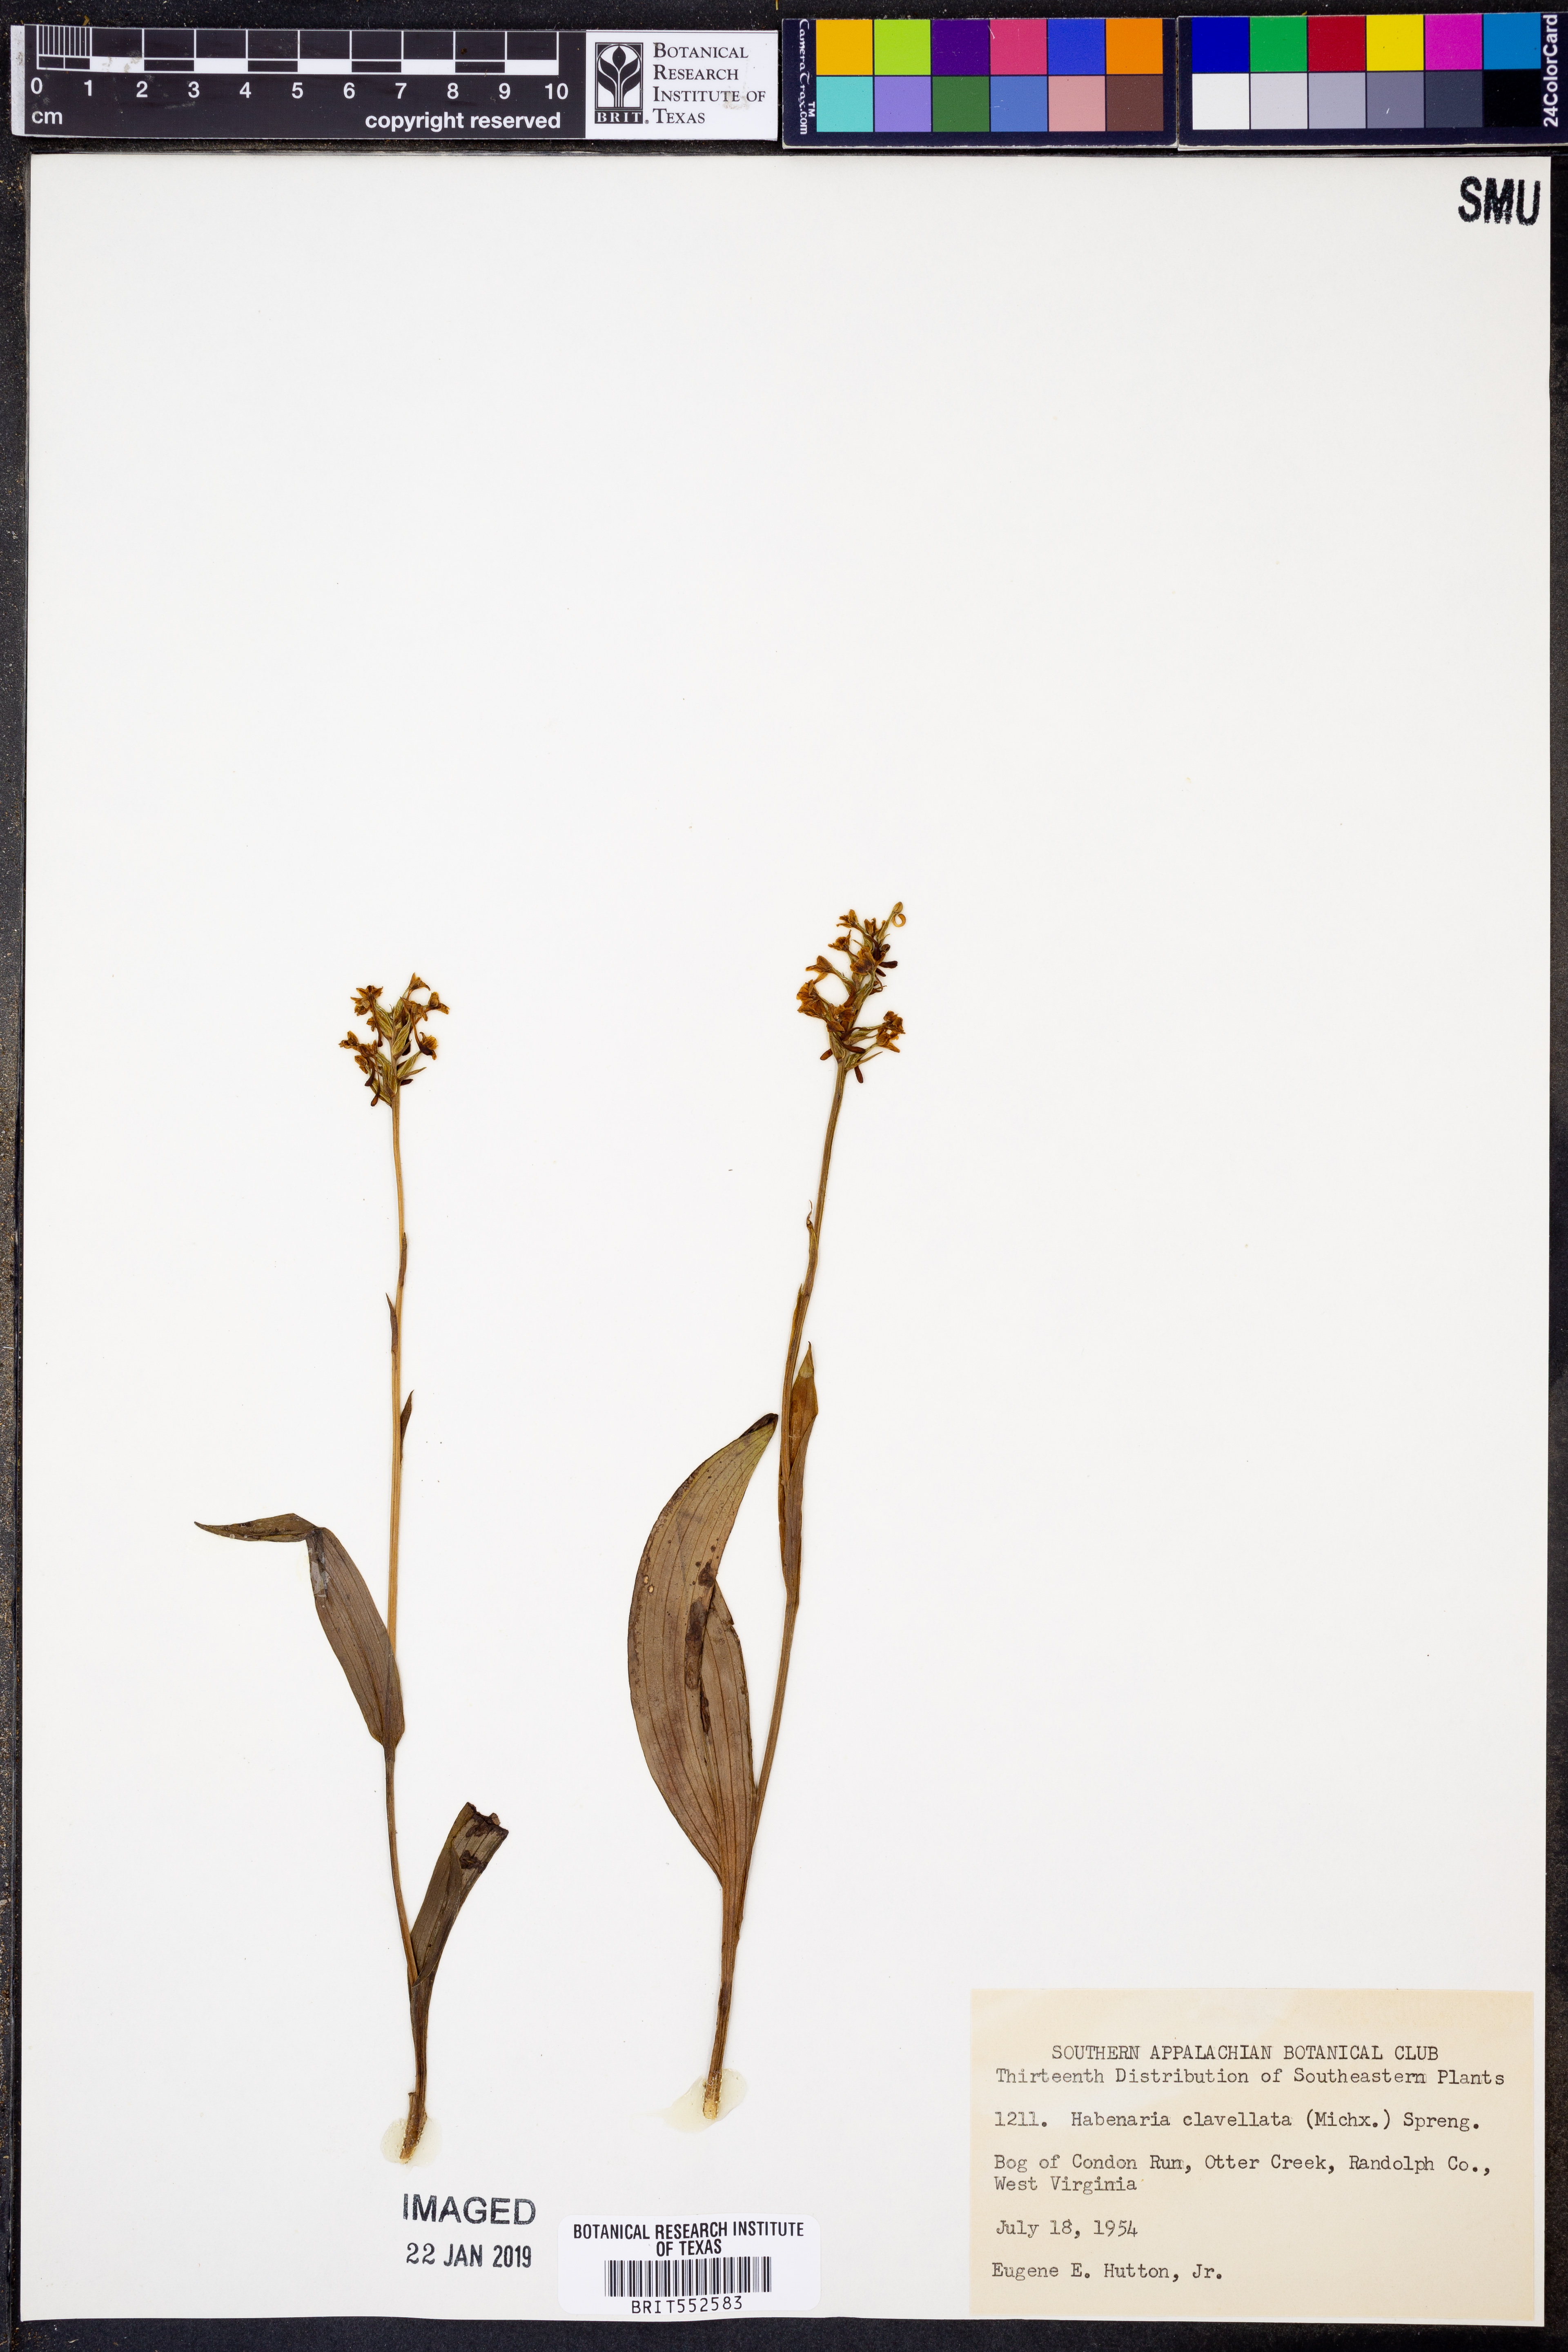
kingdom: Plantae
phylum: Tracheophyta
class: Liliopsida
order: Asparagales
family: Orchidaceae
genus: Platanthera
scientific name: Platanthera clavellata
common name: Club-spur orchid
